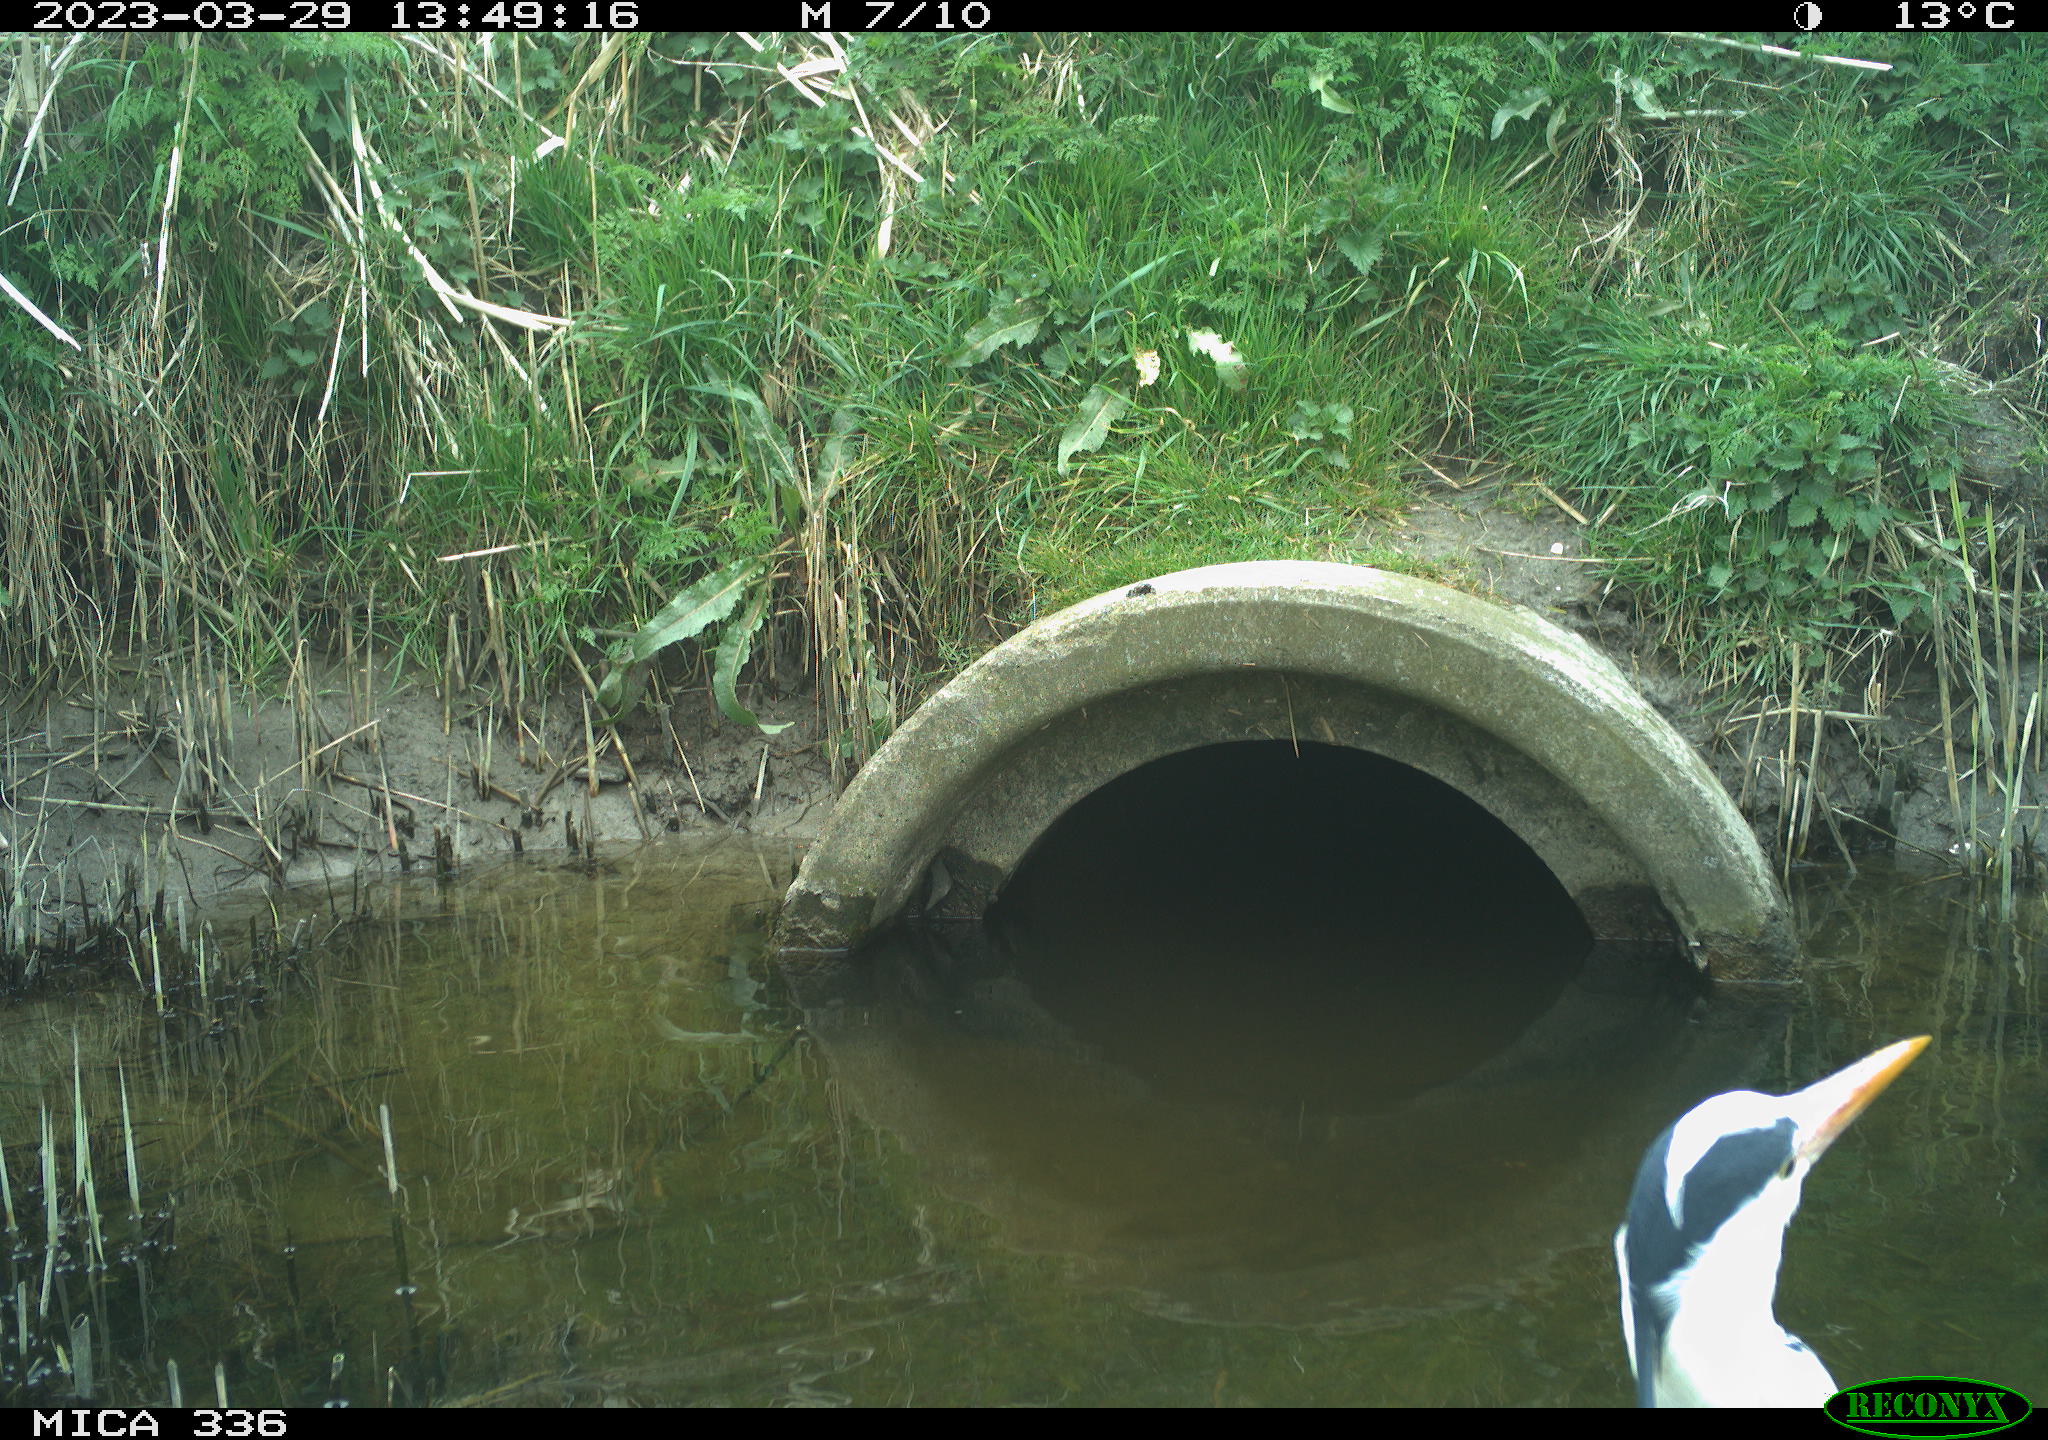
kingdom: Animalia
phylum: Chordata
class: Aves
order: Pelecaniformes
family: Ardeidae
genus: Ardea
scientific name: Ardea
